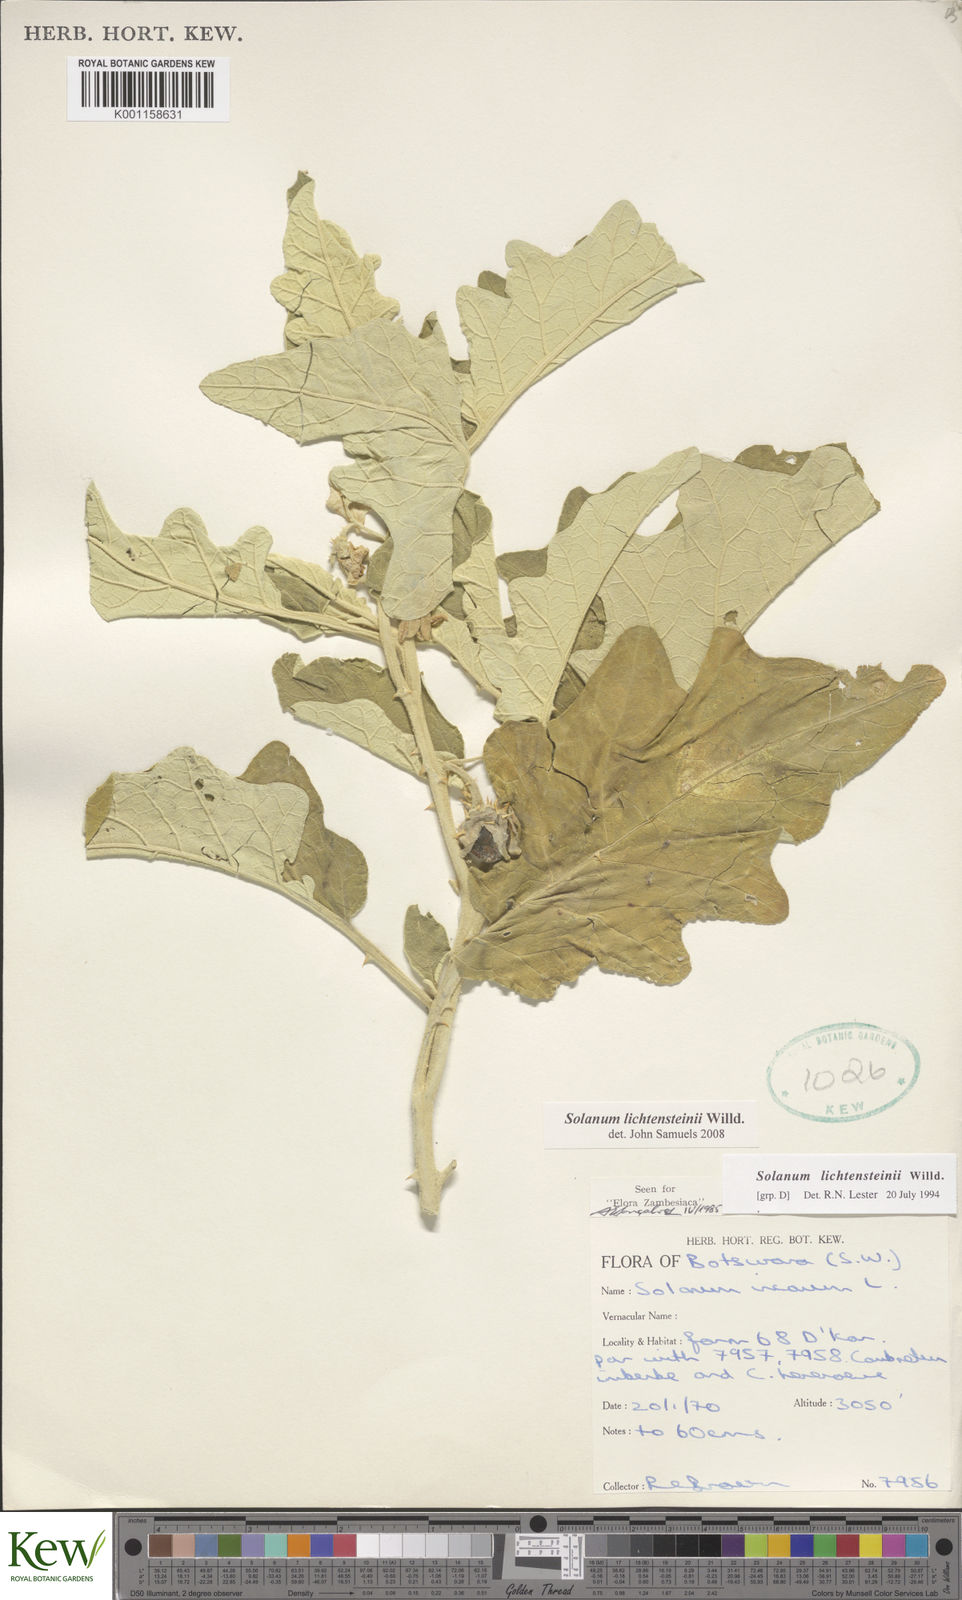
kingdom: Plantae
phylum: Tracheophyta
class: Magnoliopsida
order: Solanales
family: Solanaceae
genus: Solanum
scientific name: Solanum lichtensteinii
